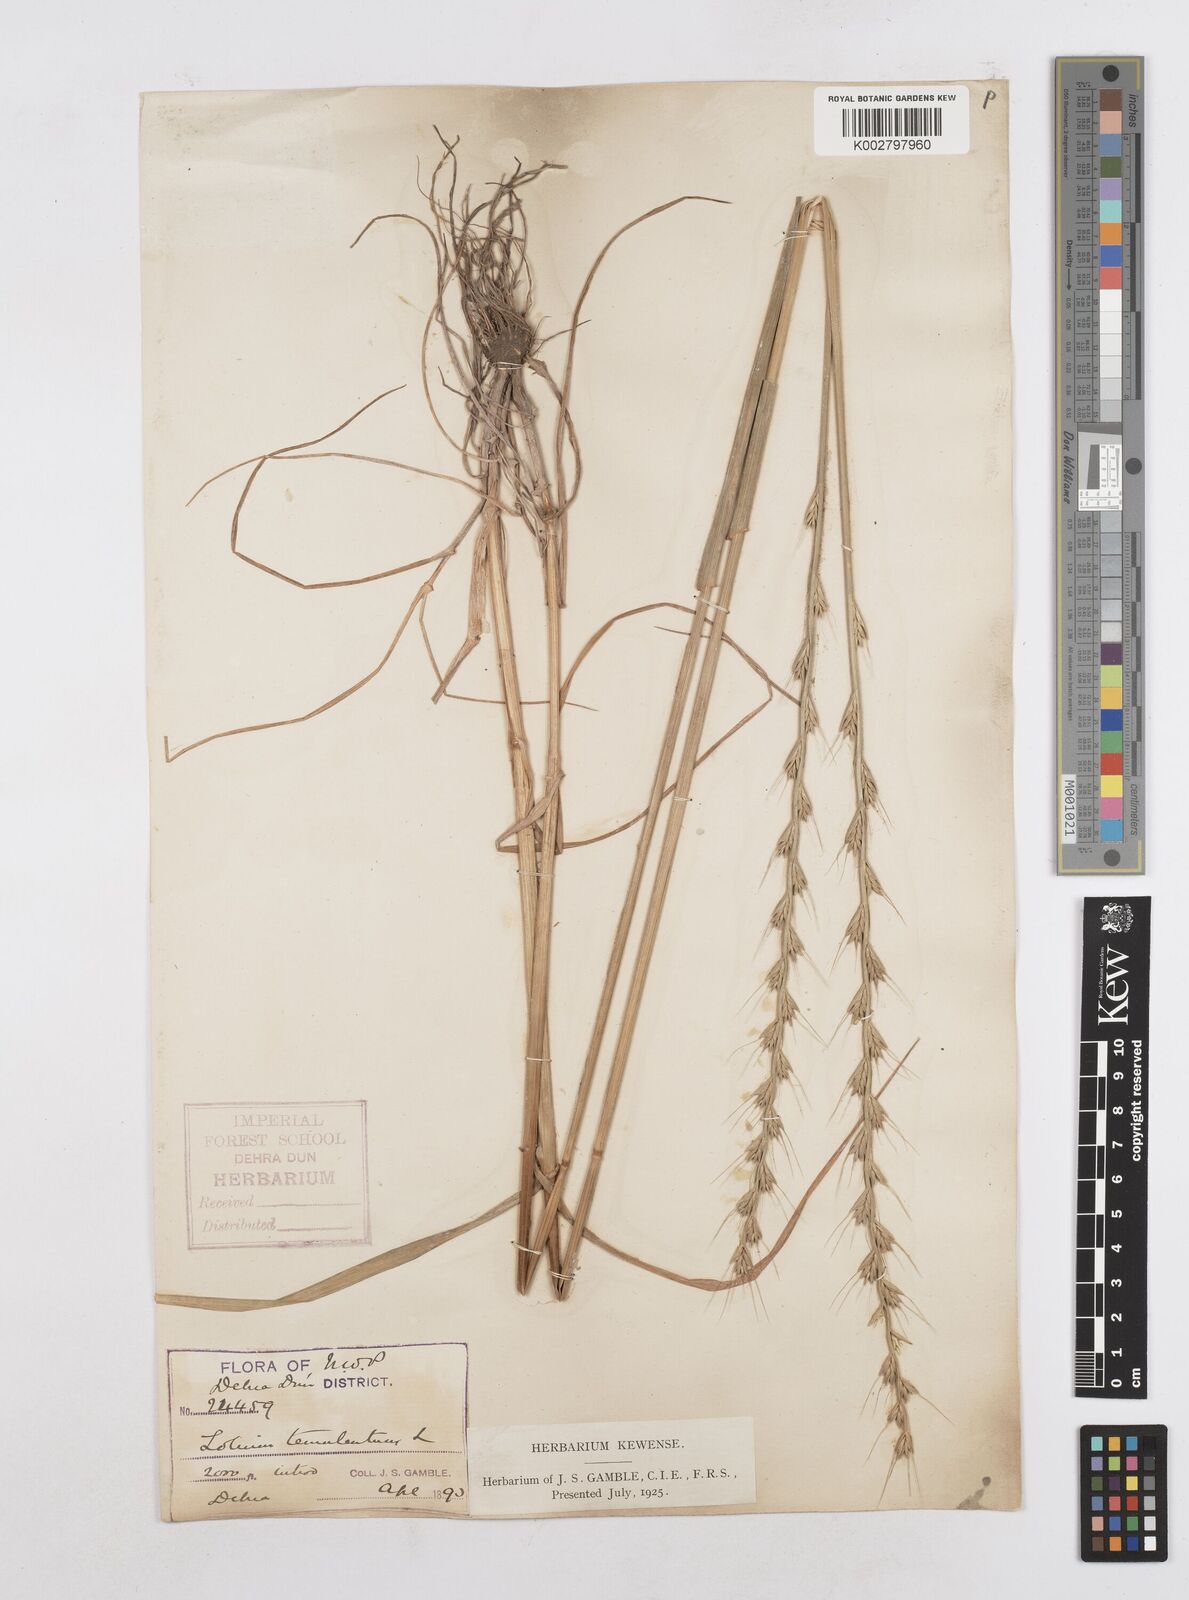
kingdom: Plantae
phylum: Tracheophyta
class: Liliopsida
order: Poales
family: Poaceae
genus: Lolium
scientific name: Lolium temulentum
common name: Darnel
